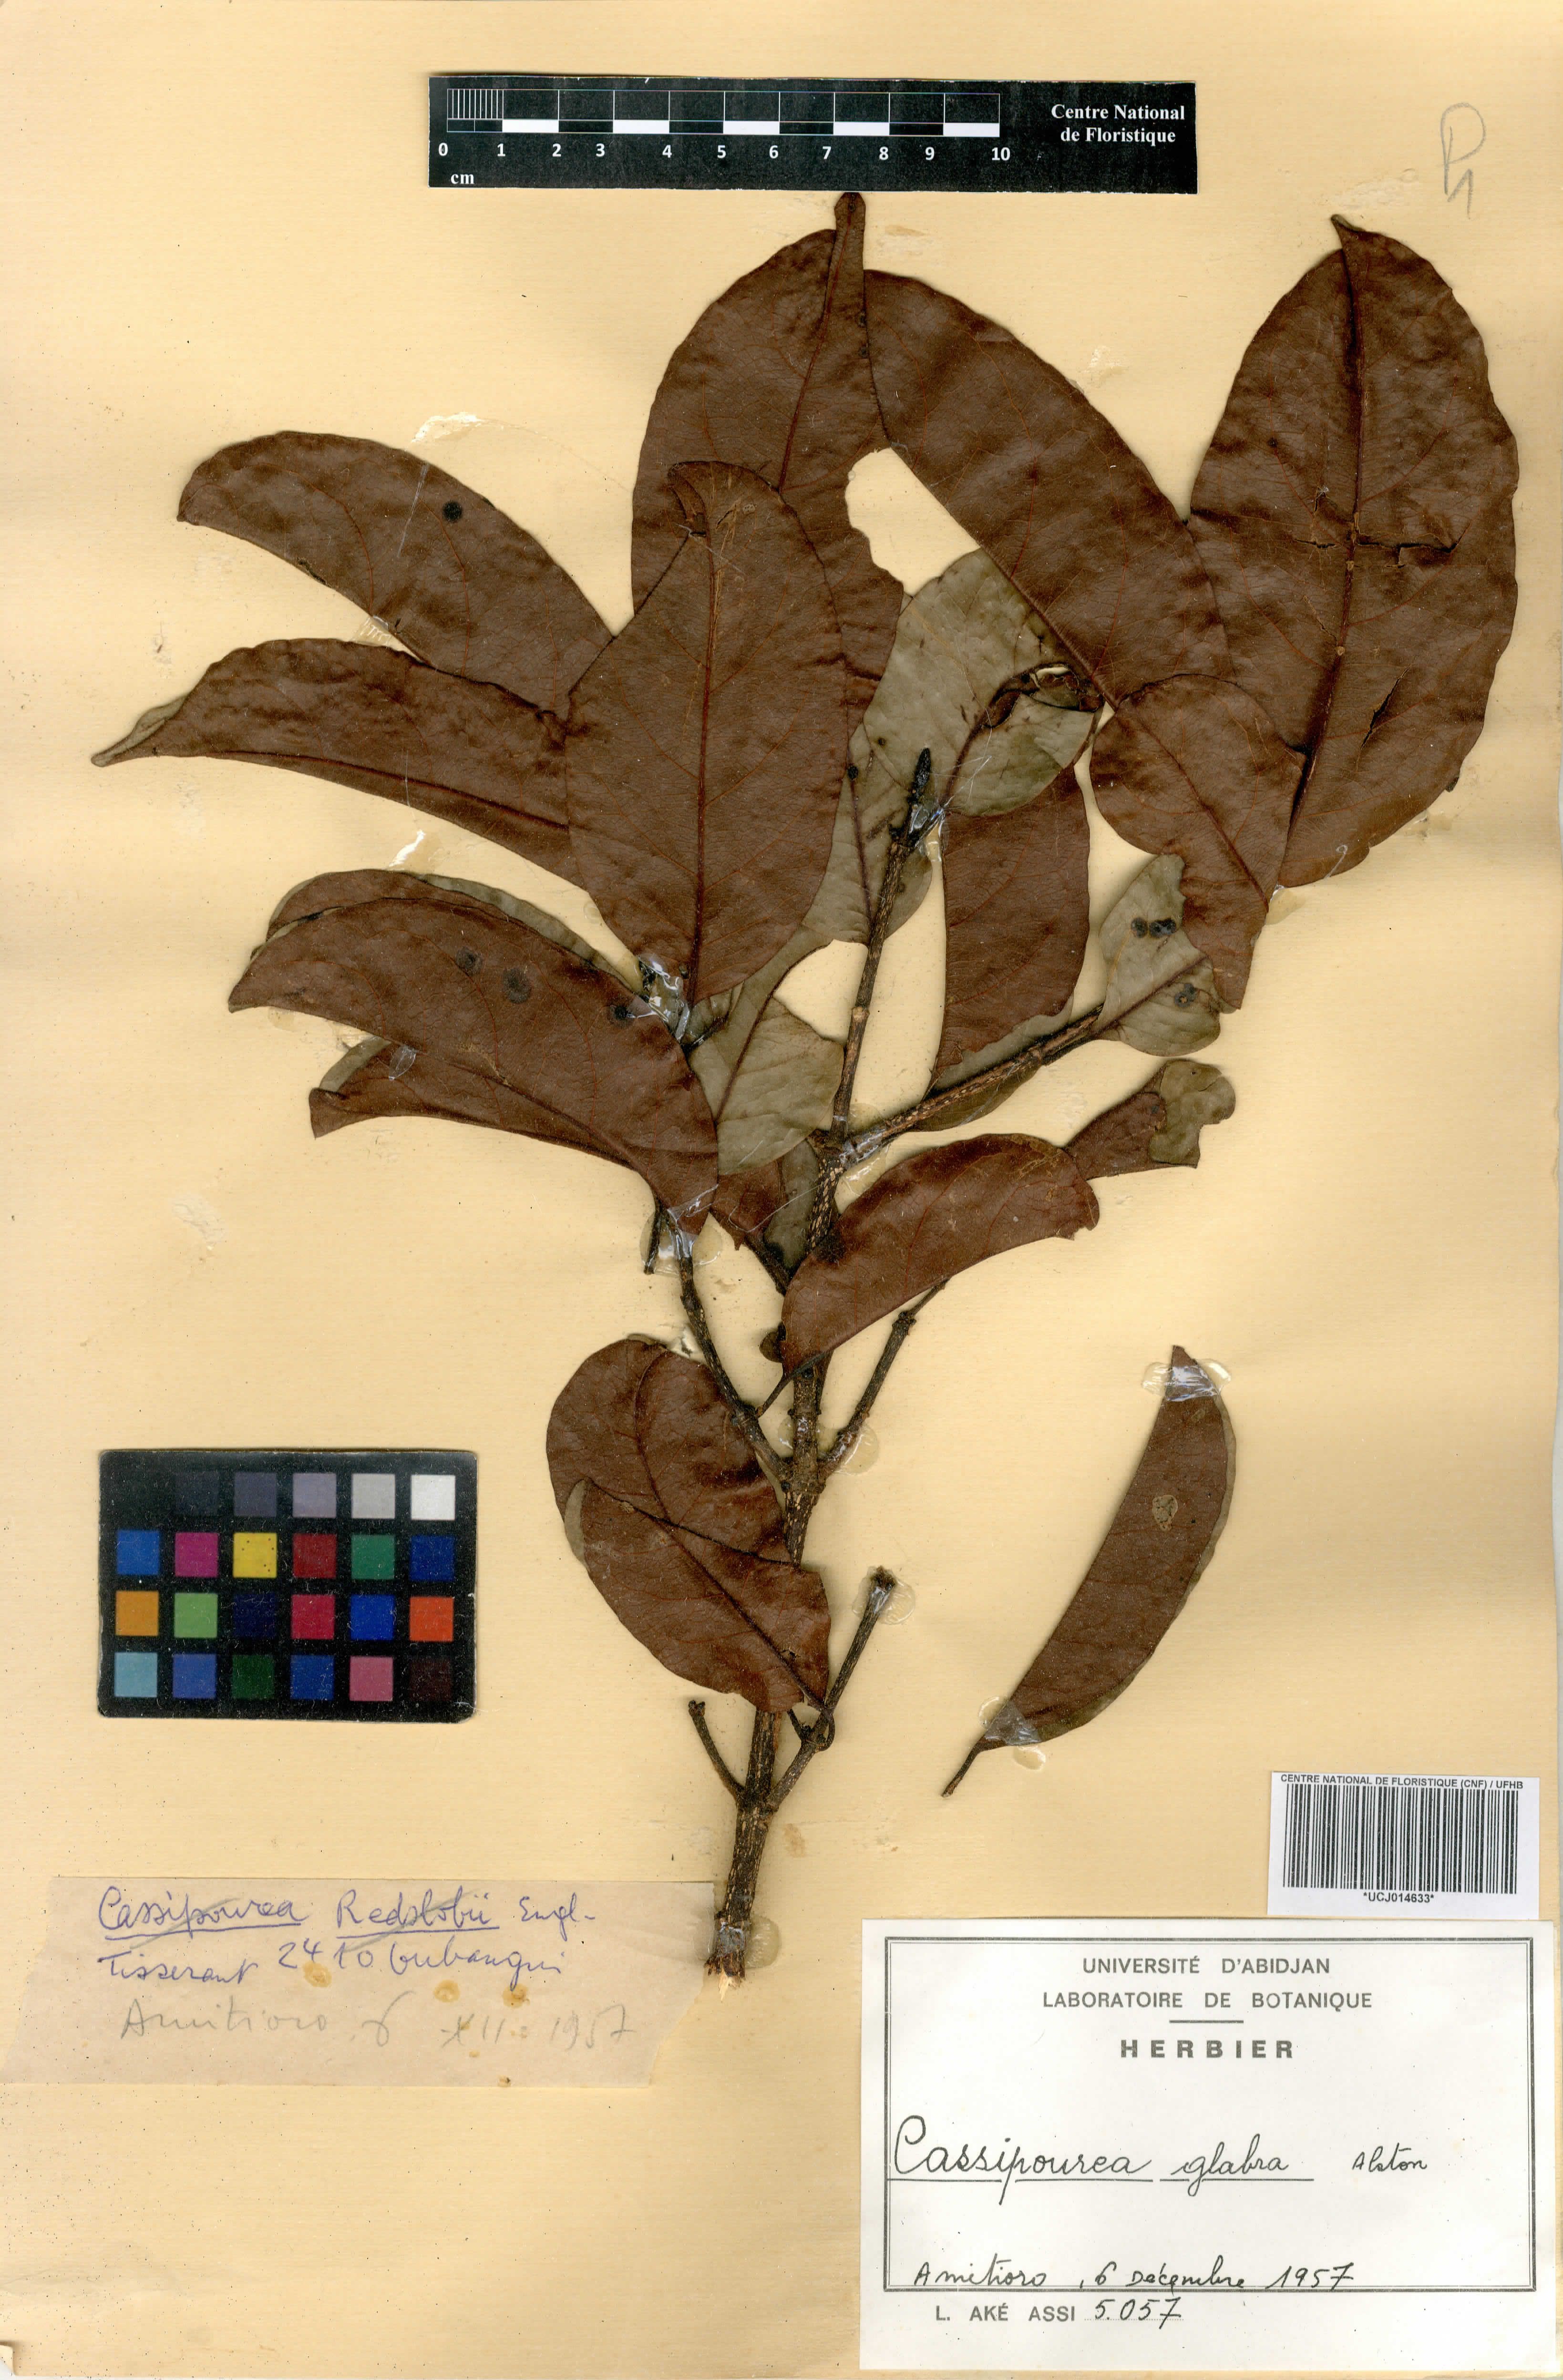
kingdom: Plantae
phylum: Tracheophyta
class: Magnoliopsida
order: Malpighiales
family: Rhizophoraceae
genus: Cassipourea
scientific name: Cassipourea gummiflua
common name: Large-leaved onionwood
